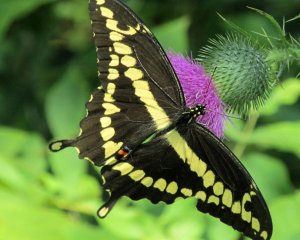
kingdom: Animalia
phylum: Arthropoda
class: Insecta
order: Lepidoptera
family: Papilionidae
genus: Papilio
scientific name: Papilio cresphontes
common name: Eastern Giant Swallowtail
